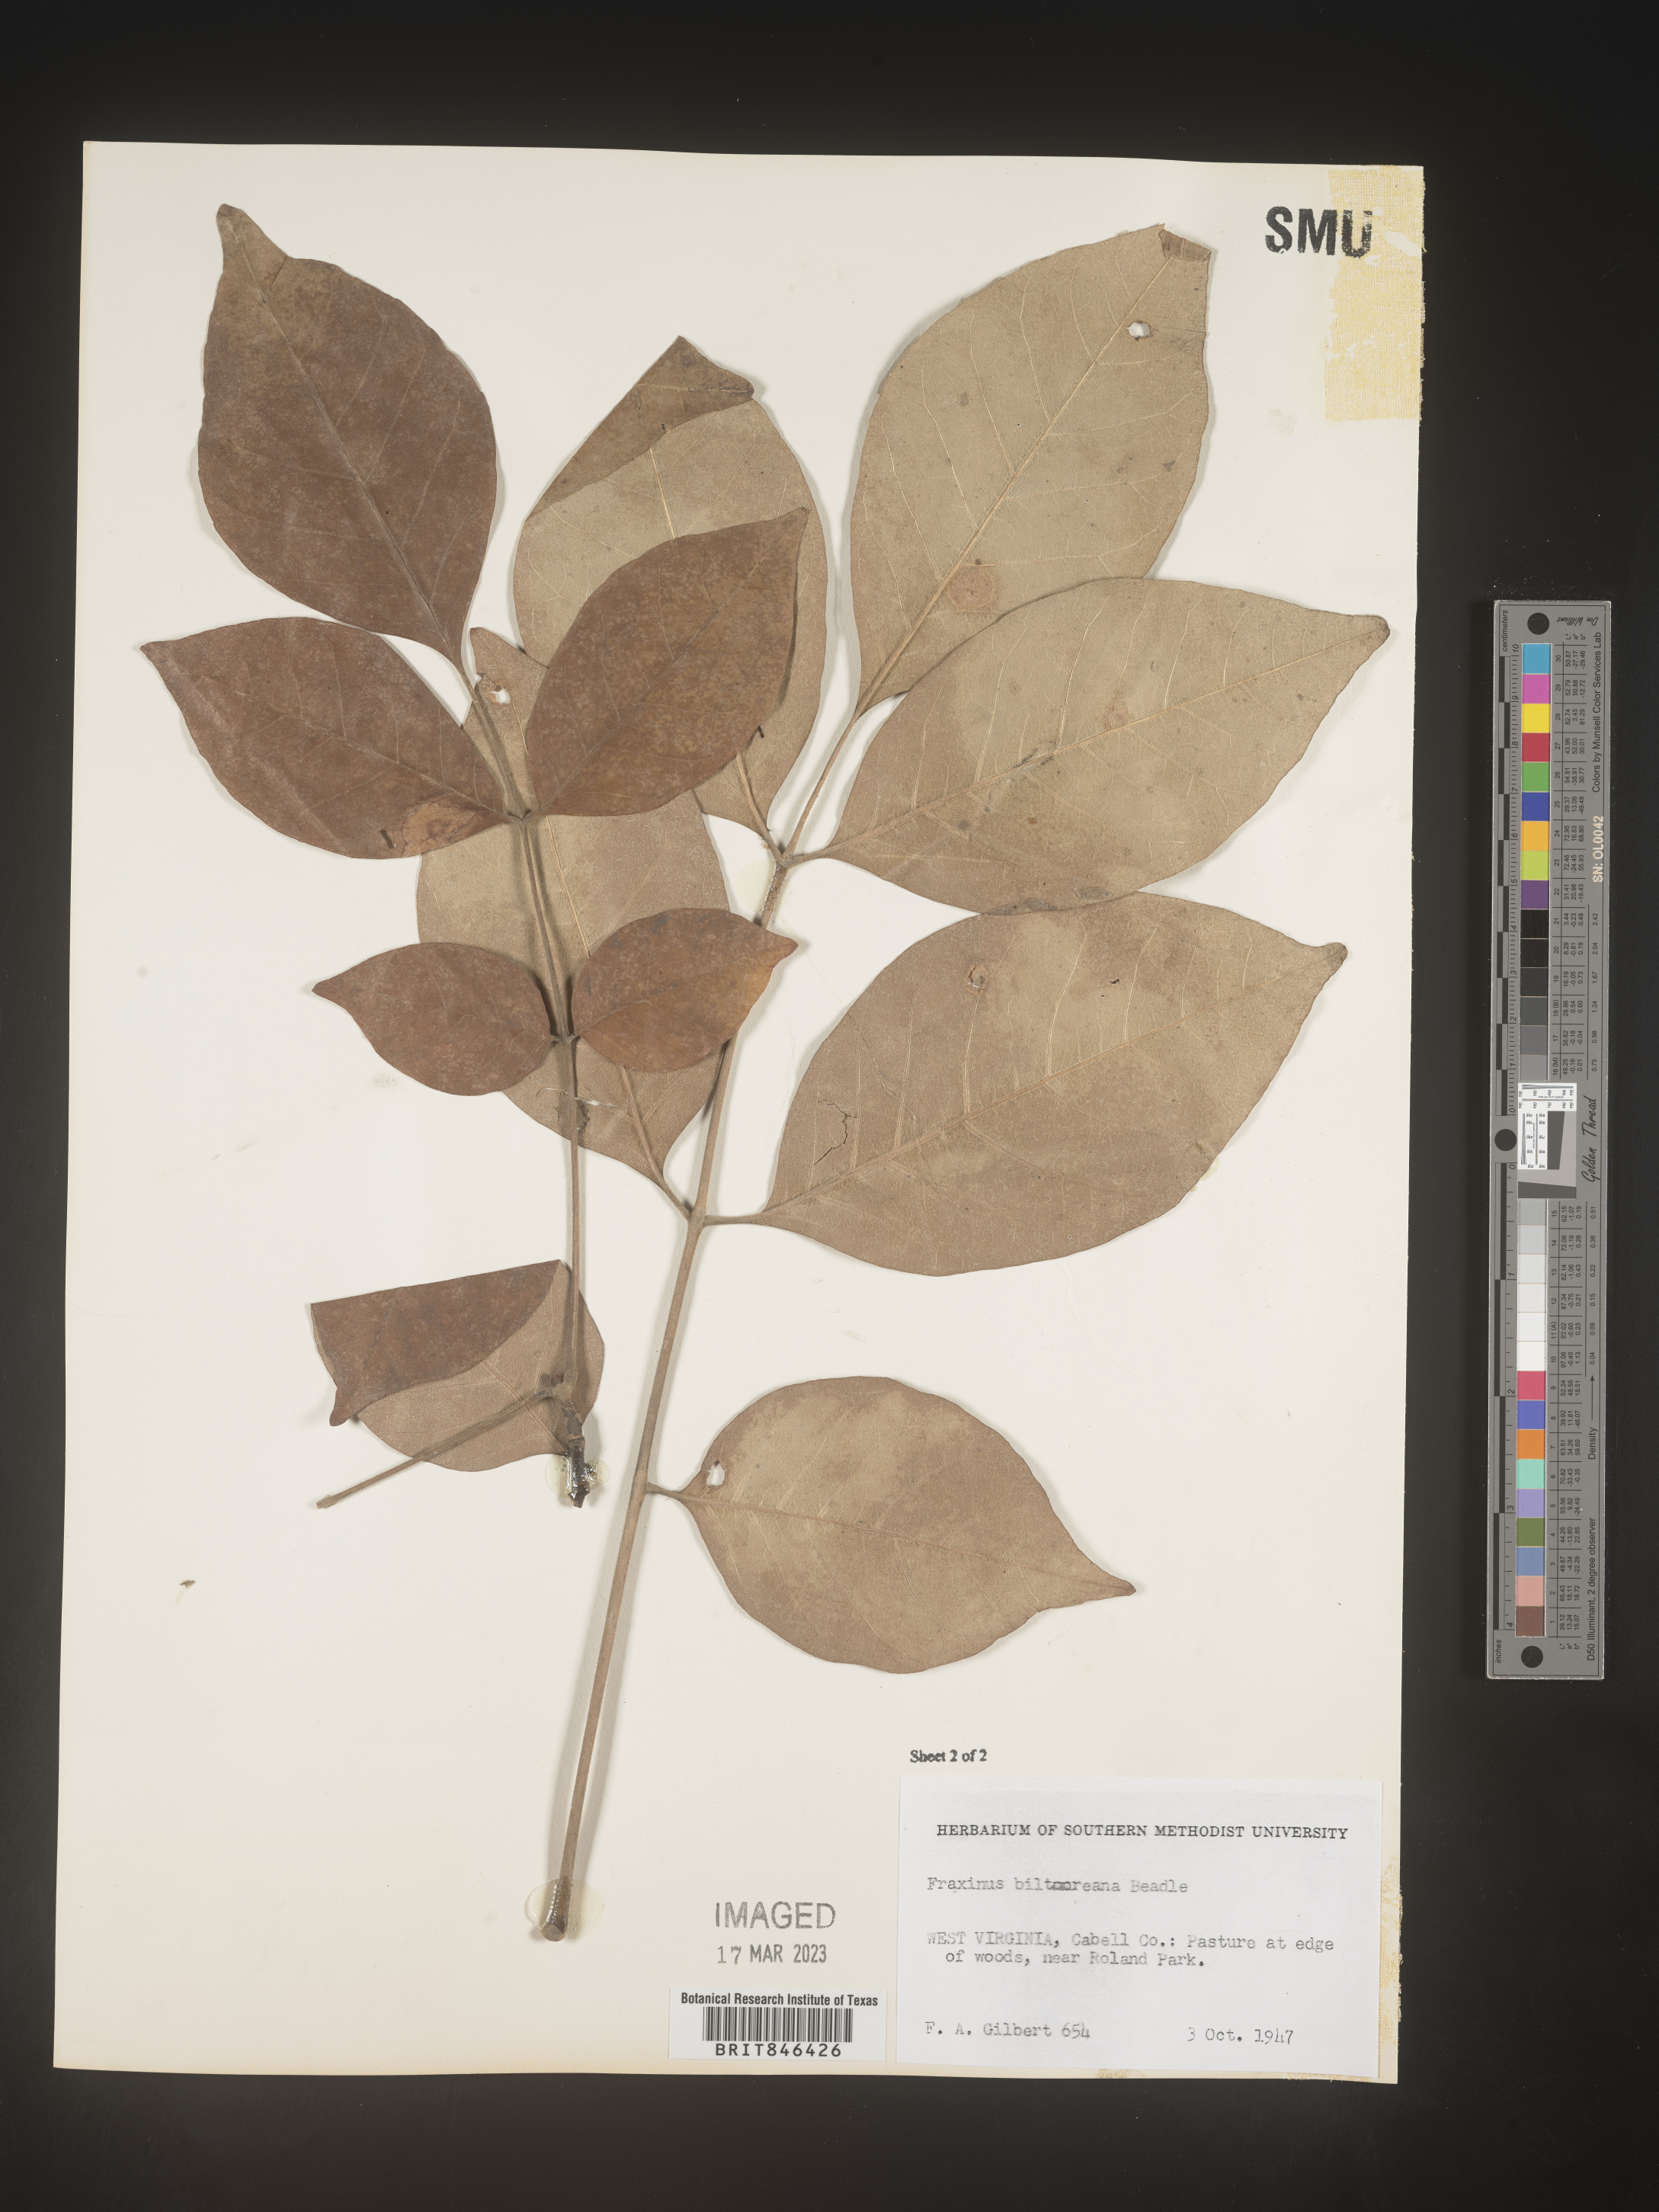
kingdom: Plantae
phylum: Tracheophyta
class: Magnoliopsida
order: Lamiales
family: Oleaceae
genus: Fraxinus
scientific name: Fraxinus americana
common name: White ash
